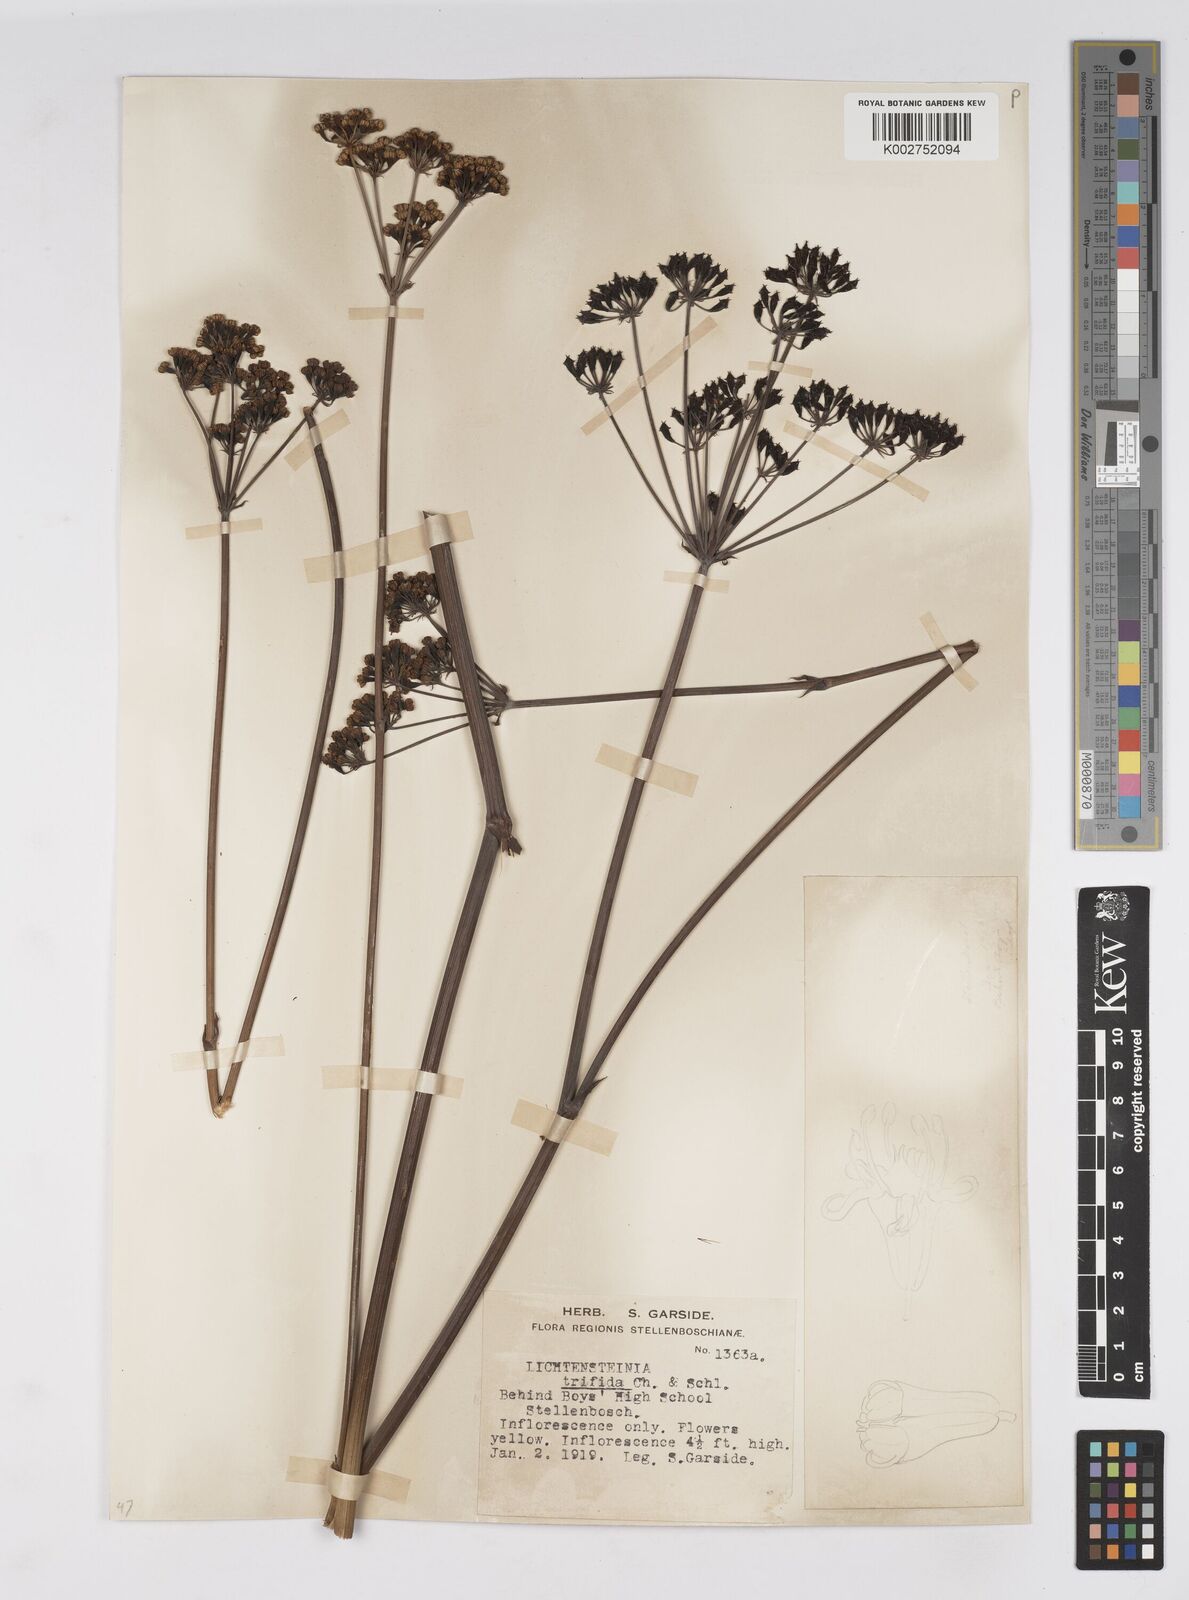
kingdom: Plantae
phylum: Tracheophyta
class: Magnoliopsida
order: Apiales
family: Apiaceae
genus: Lichtensteinia
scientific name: Lichtensteinia trifida
